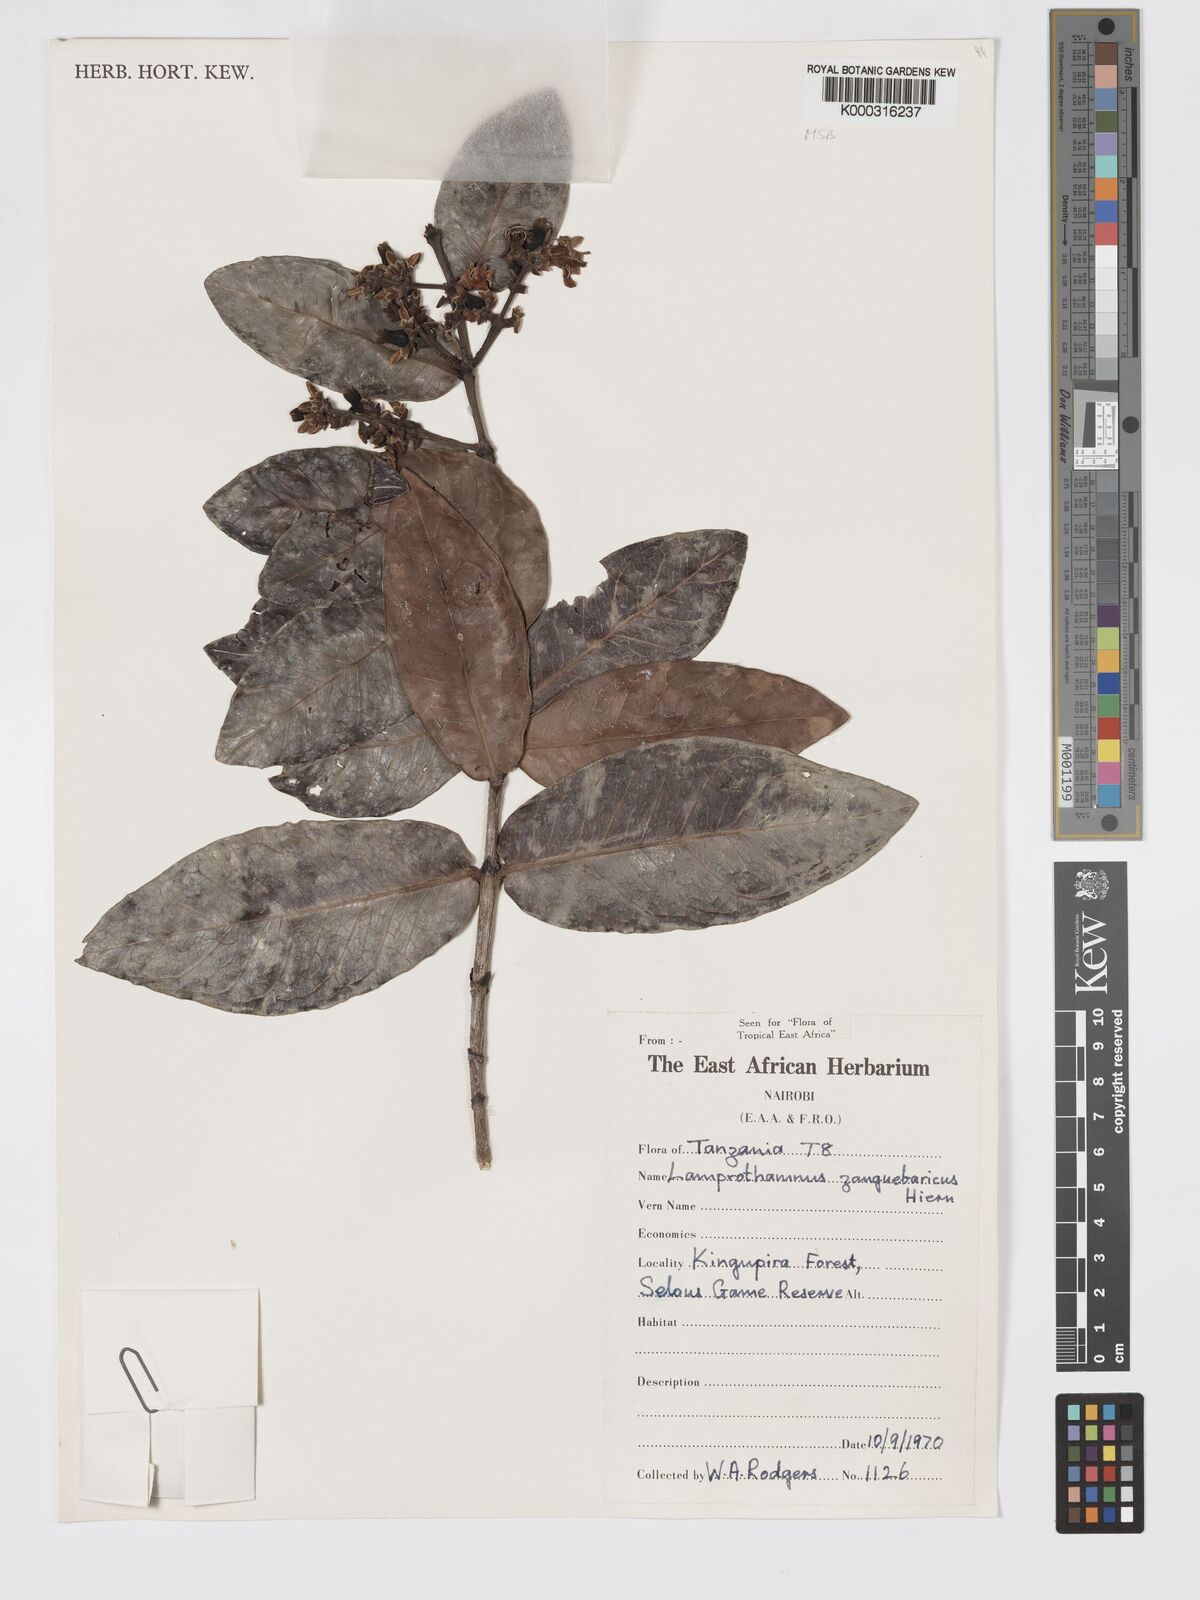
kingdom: Plantae
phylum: Tracheophyta
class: Magnoliopsida
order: Gentianales
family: Rubiaceae
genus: Lamprothamnus
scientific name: Lamprothamnus zanguebaricus
